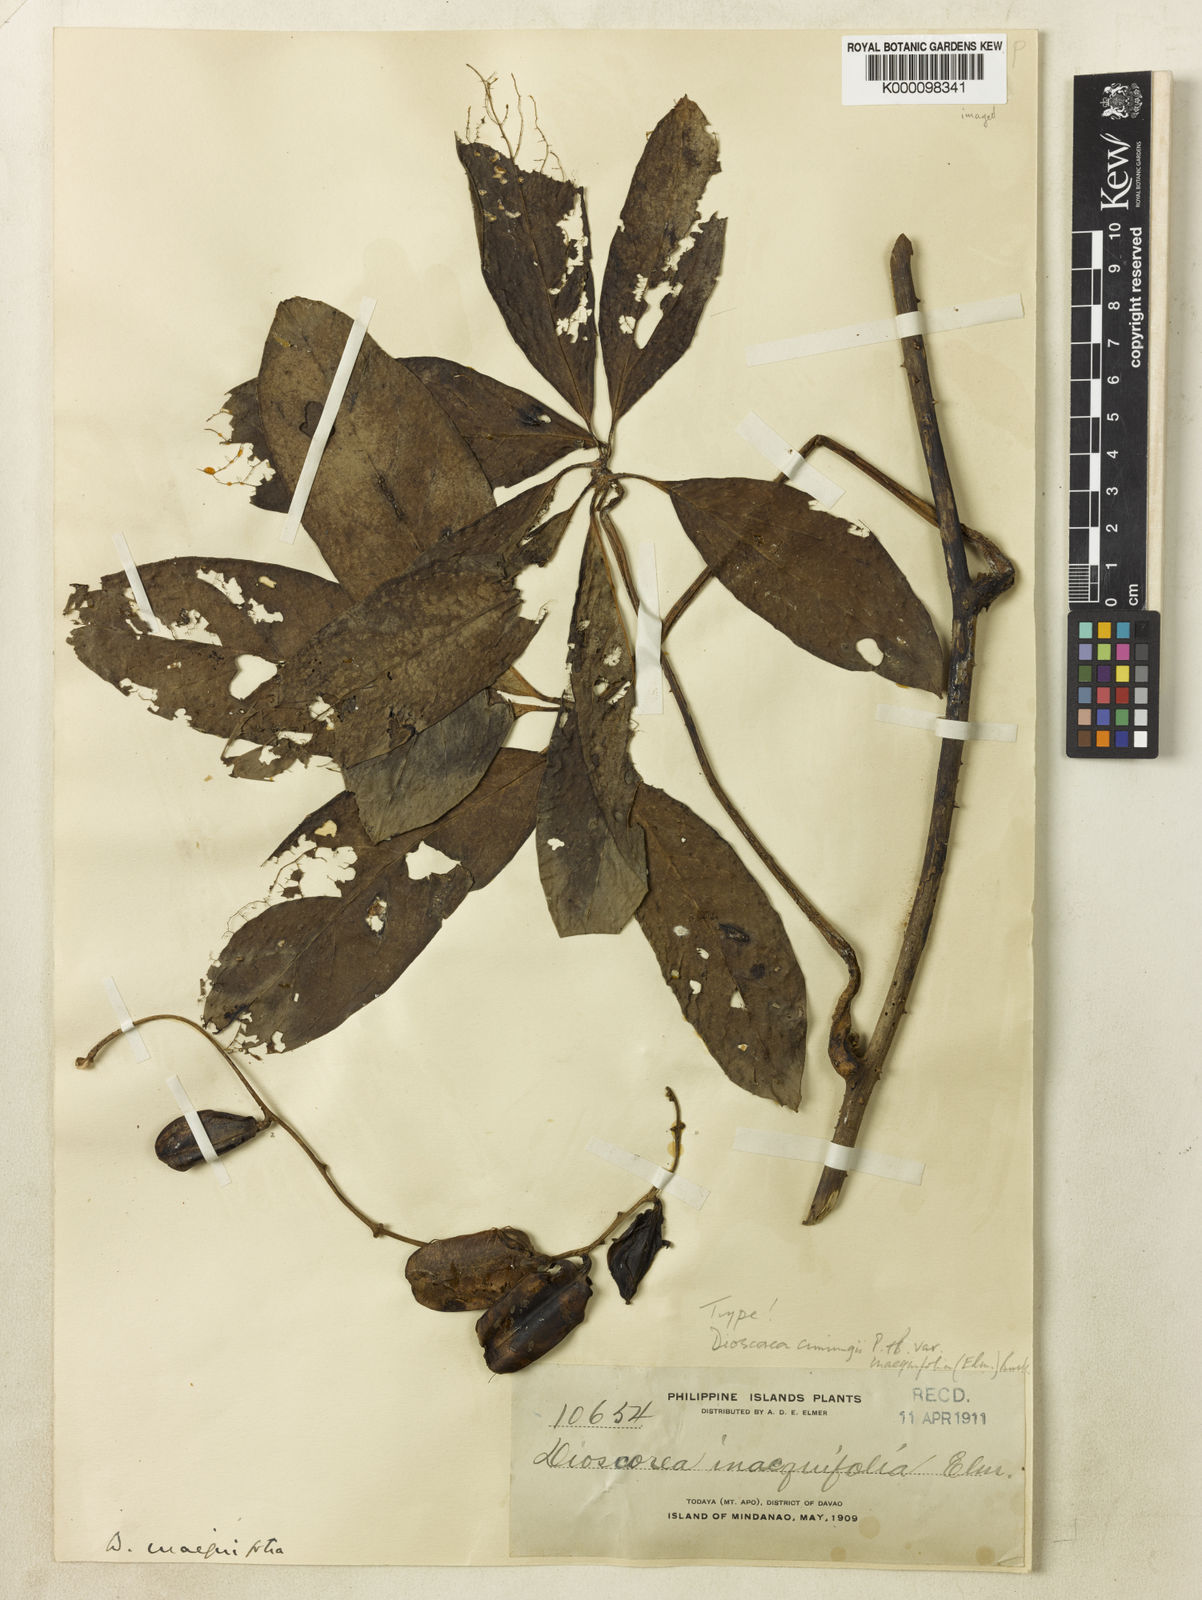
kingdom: Plantae
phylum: Tracheophyta
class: Liliopsida
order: Dioscoreales
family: Dioscoreaceae
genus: Dioscorea
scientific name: Dioscorea cumingii
